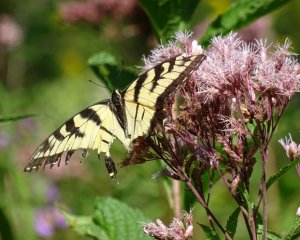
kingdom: Animalia
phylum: Arthropoda
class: Insecta
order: Lepidoptera
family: Papilionidae
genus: Pterourus
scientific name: Pterourus glaucus
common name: Eastern Tiger Swallowtail
